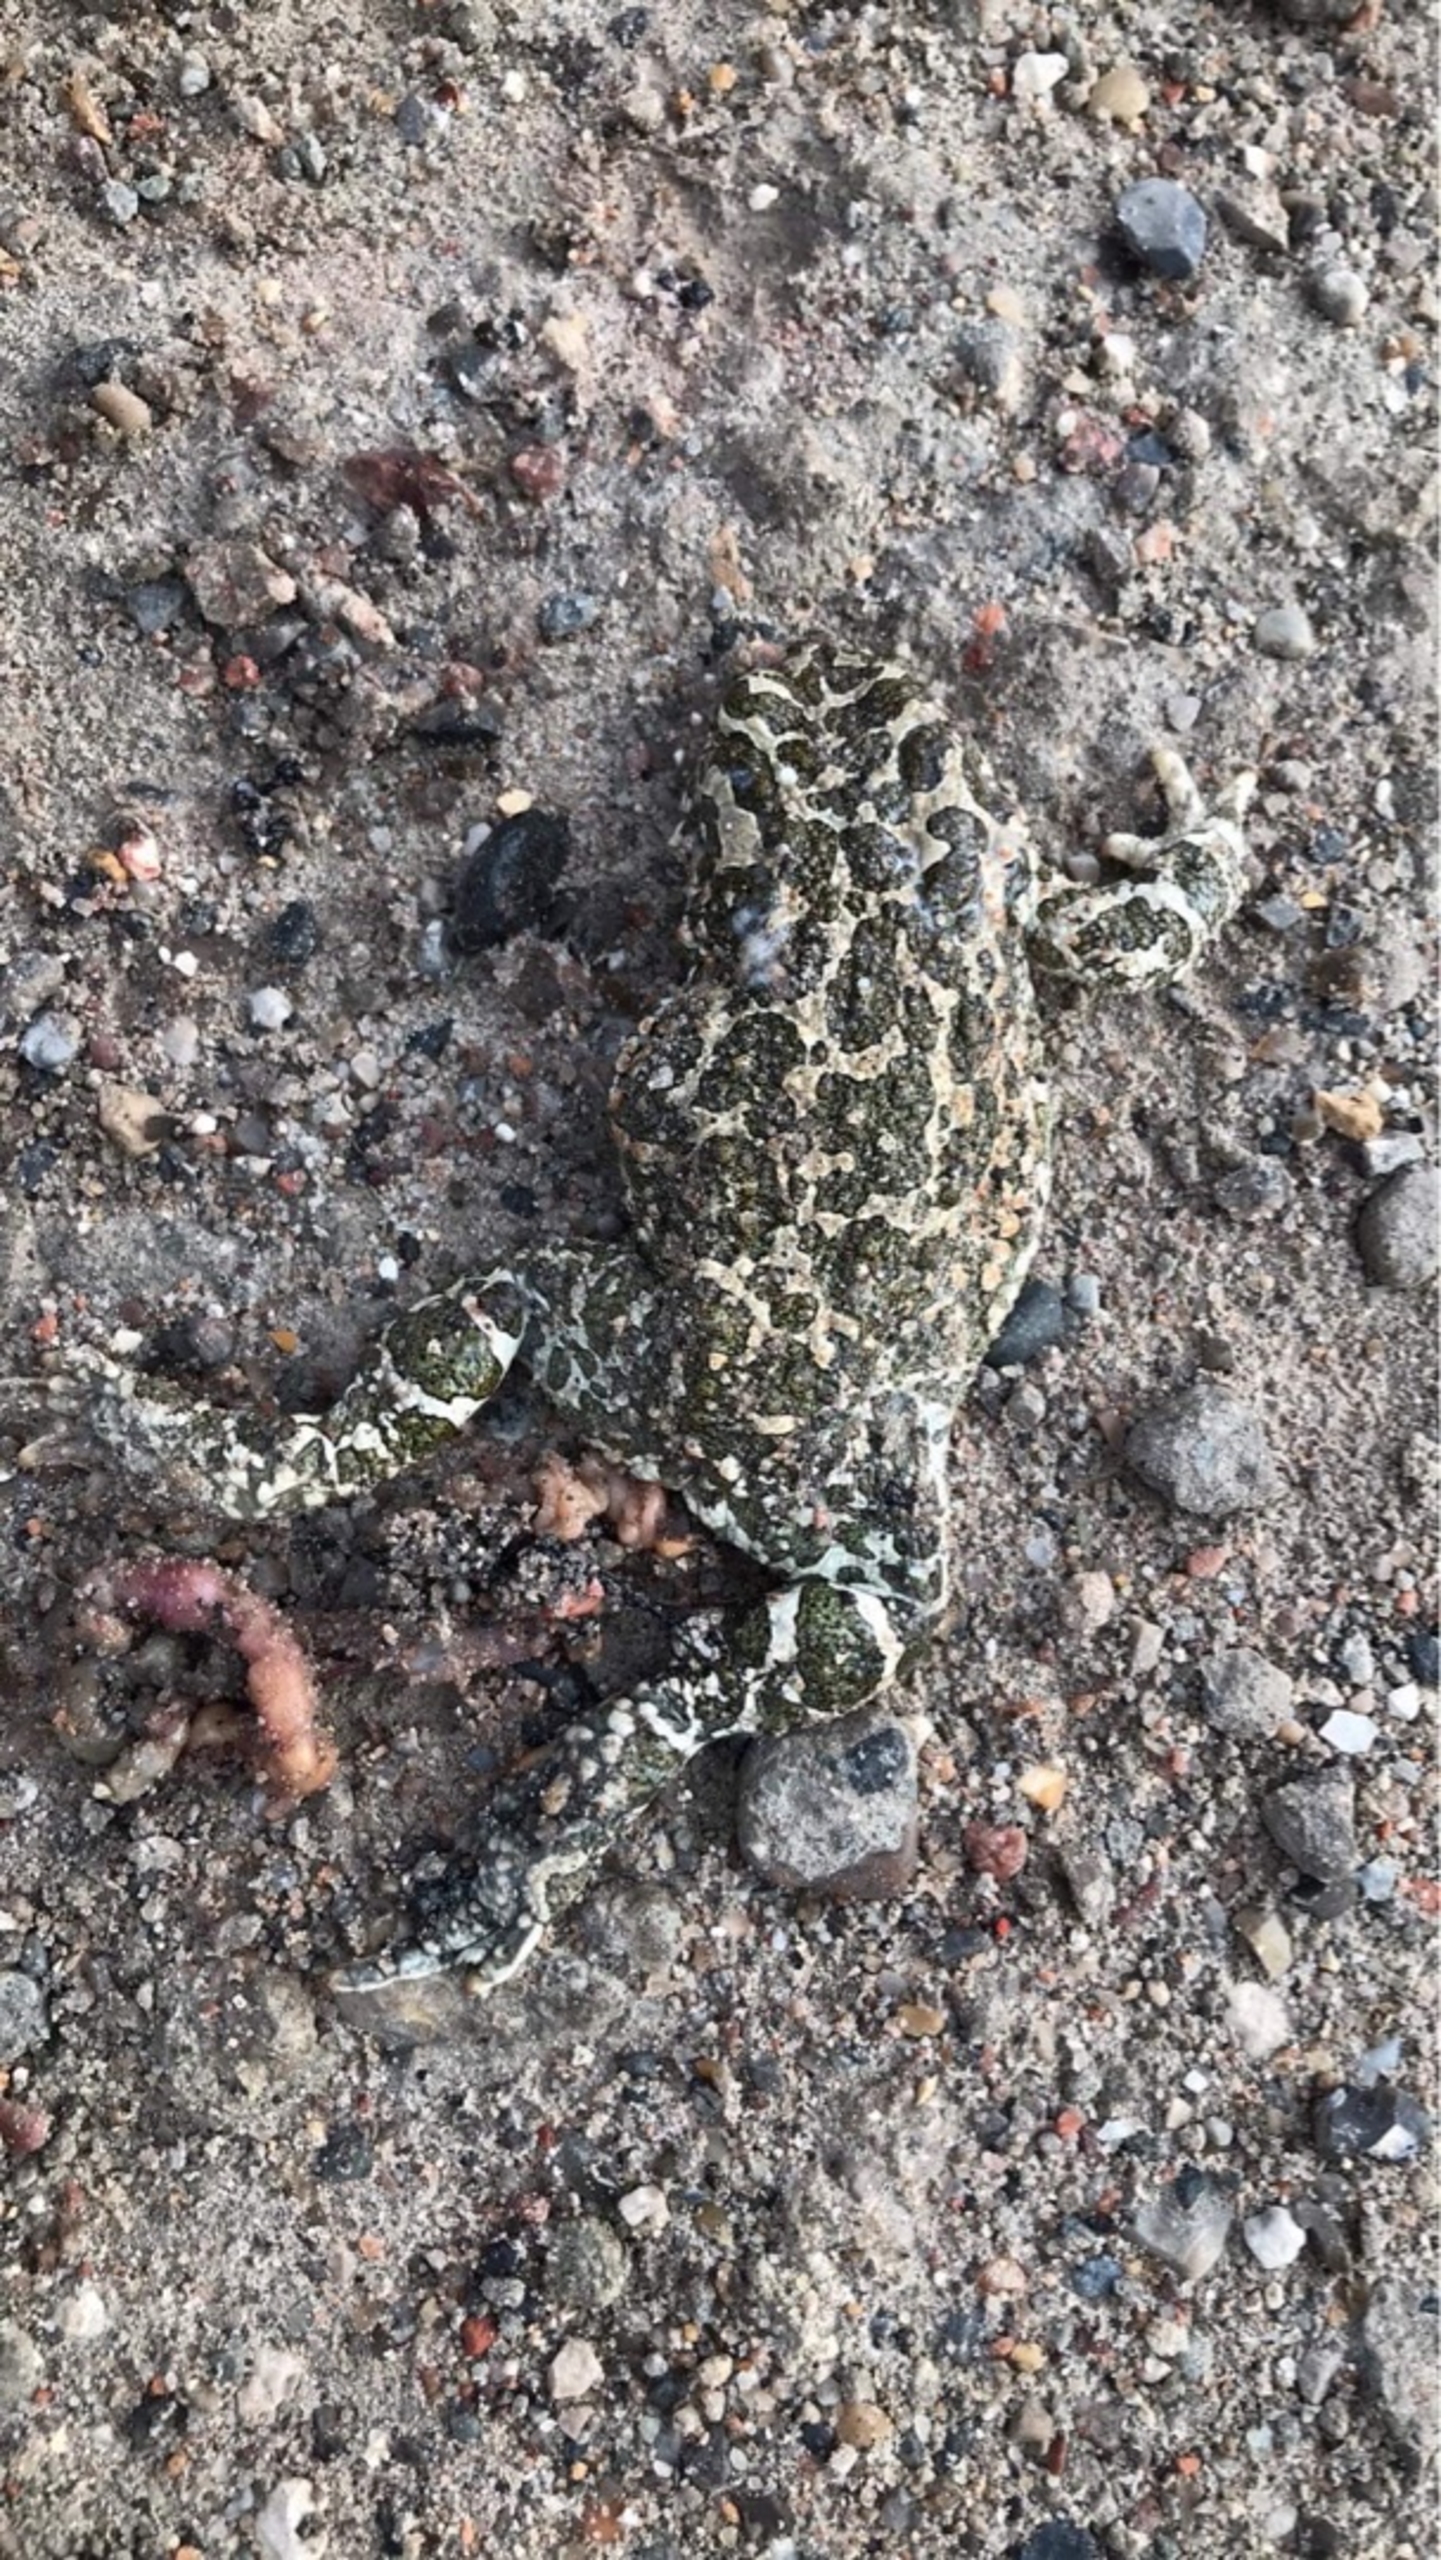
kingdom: Animalia
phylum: Chordata
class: Amphibia
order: Anura
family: Bufonidae
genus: Bufotes
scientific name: Bufotes viridis
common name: Grønbroget tudse
